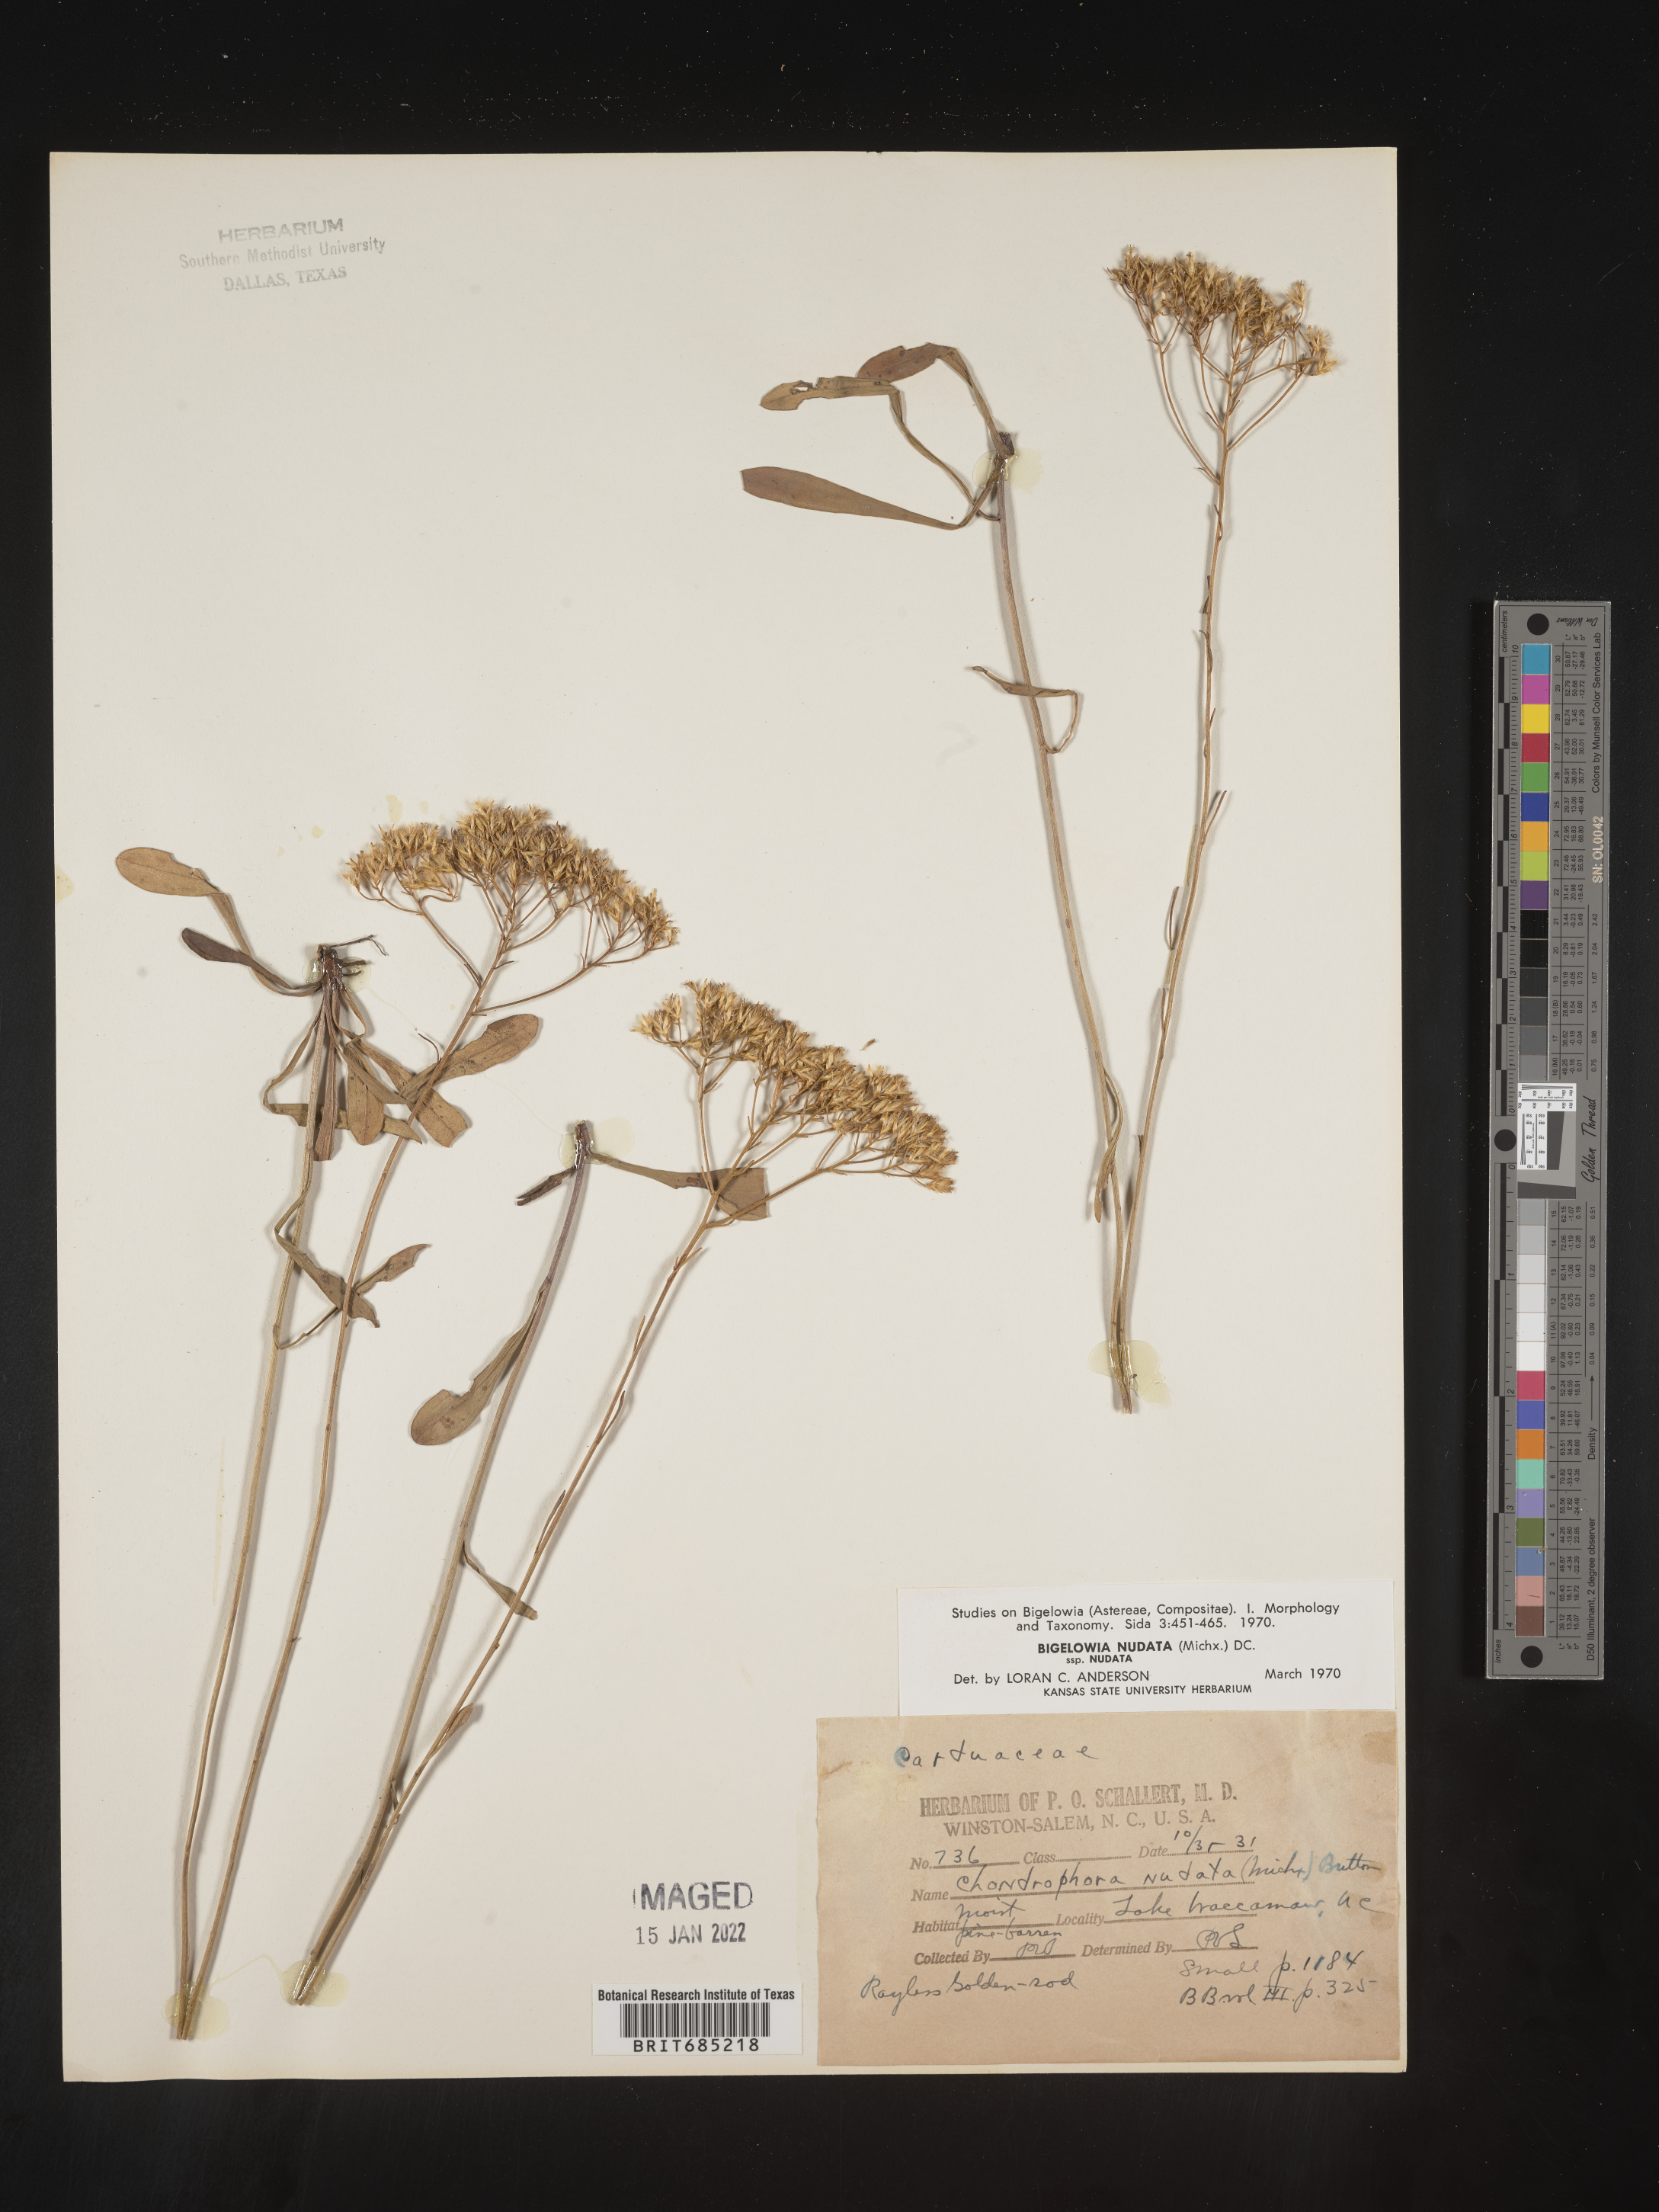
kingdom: Plantae
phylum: Tracheophyta
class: Magnoliopsida
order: Asterales
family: Asteraceae
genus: Bigelowia
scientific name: Bigelowia nudata
